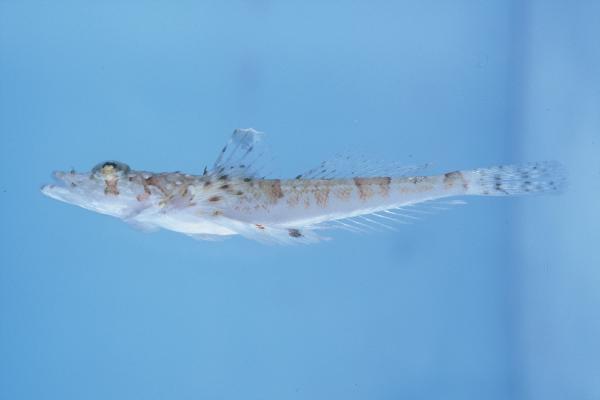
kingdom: Animalia
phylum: Chordata
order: Scorpaeniformes
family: Platycephalidae
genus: Sunagocia
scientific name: Sunagocia arenicola
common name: Broadhead flathead
